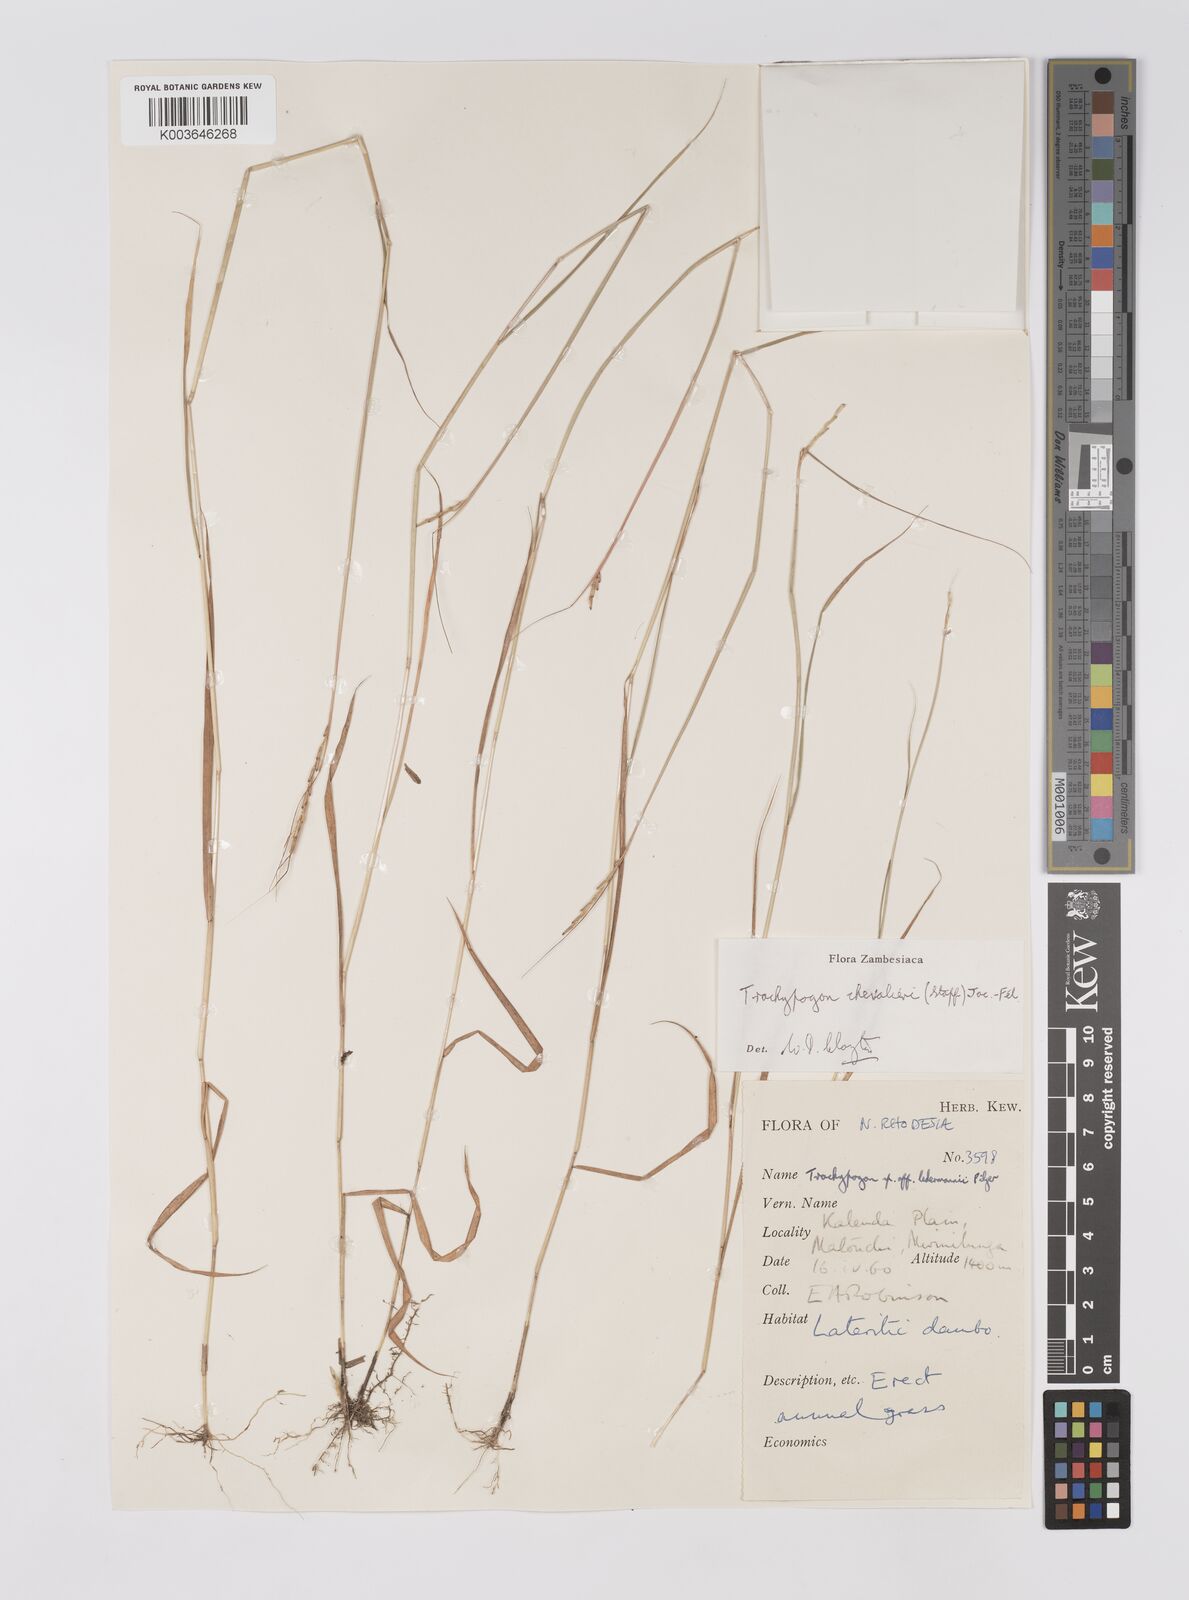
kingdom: Plantae
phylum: Tracheophyta
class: Liliopsida
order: Poales
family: Poaceae
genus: Trachypogon
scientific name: Trachypogon chevalieri
